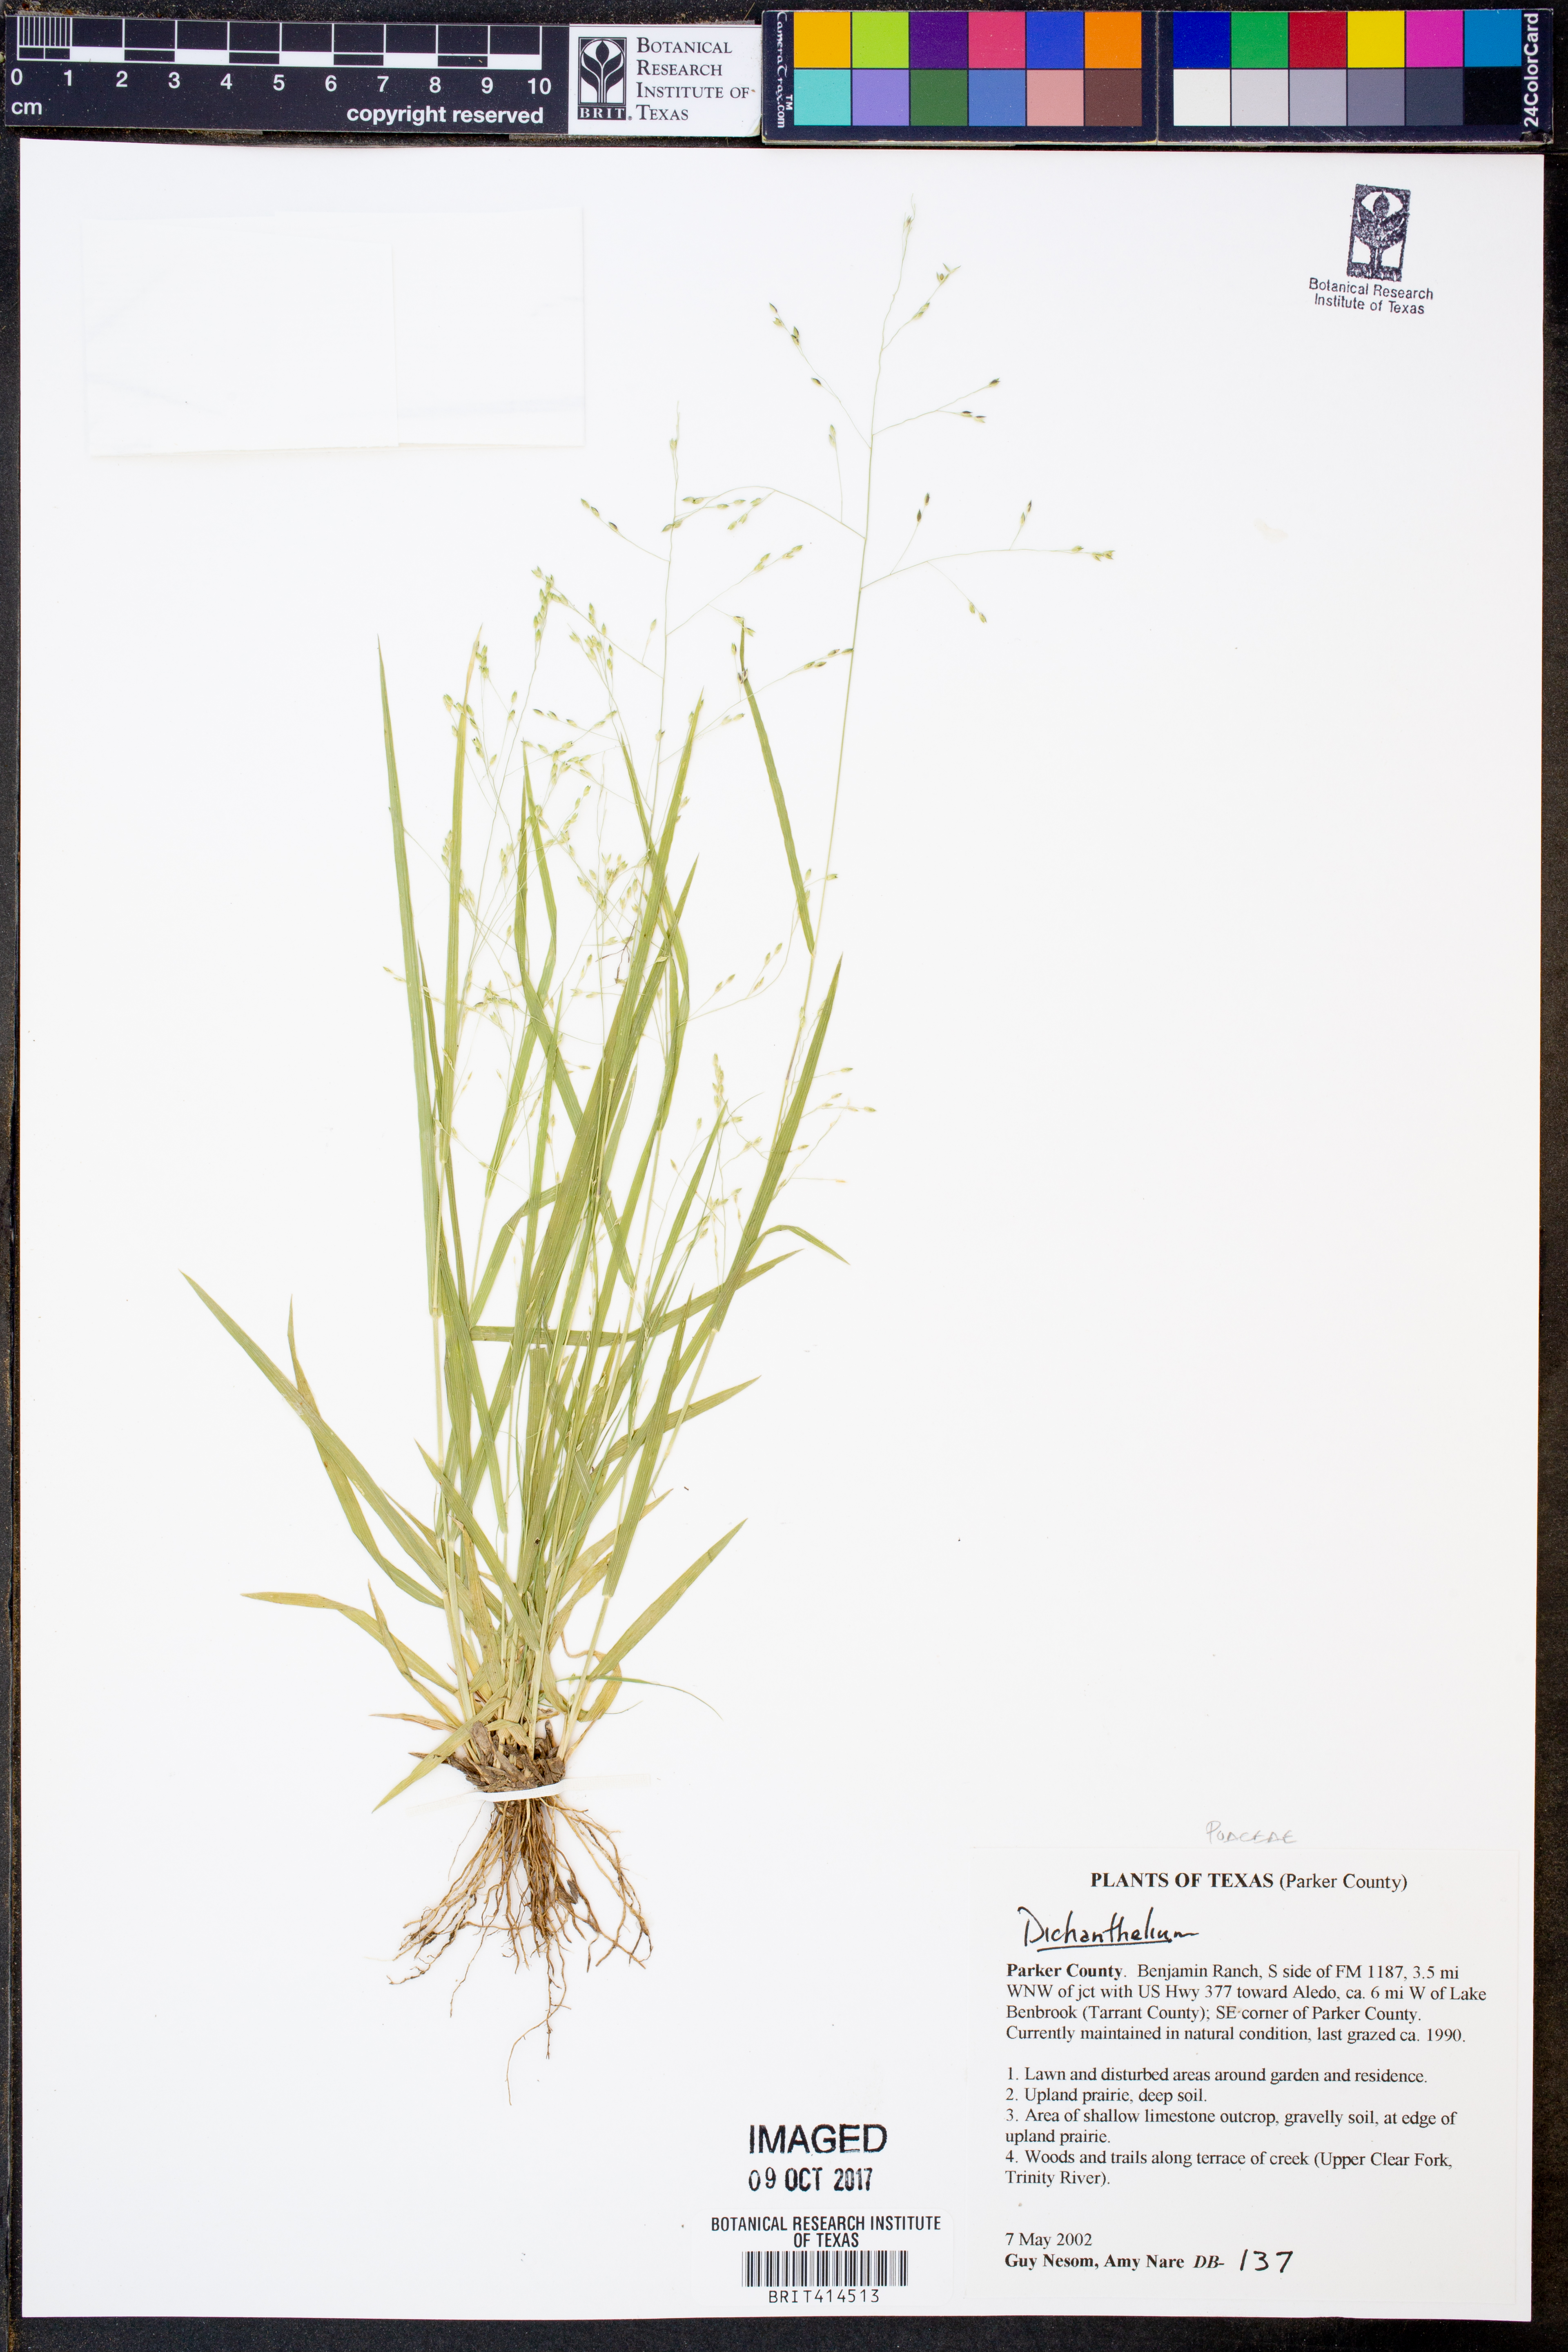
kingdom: Plantae
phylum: Tracheophyta
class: Liliopsida
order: Poales
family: Poaceae
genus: Dichanthelium
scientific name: Dichanthelium
